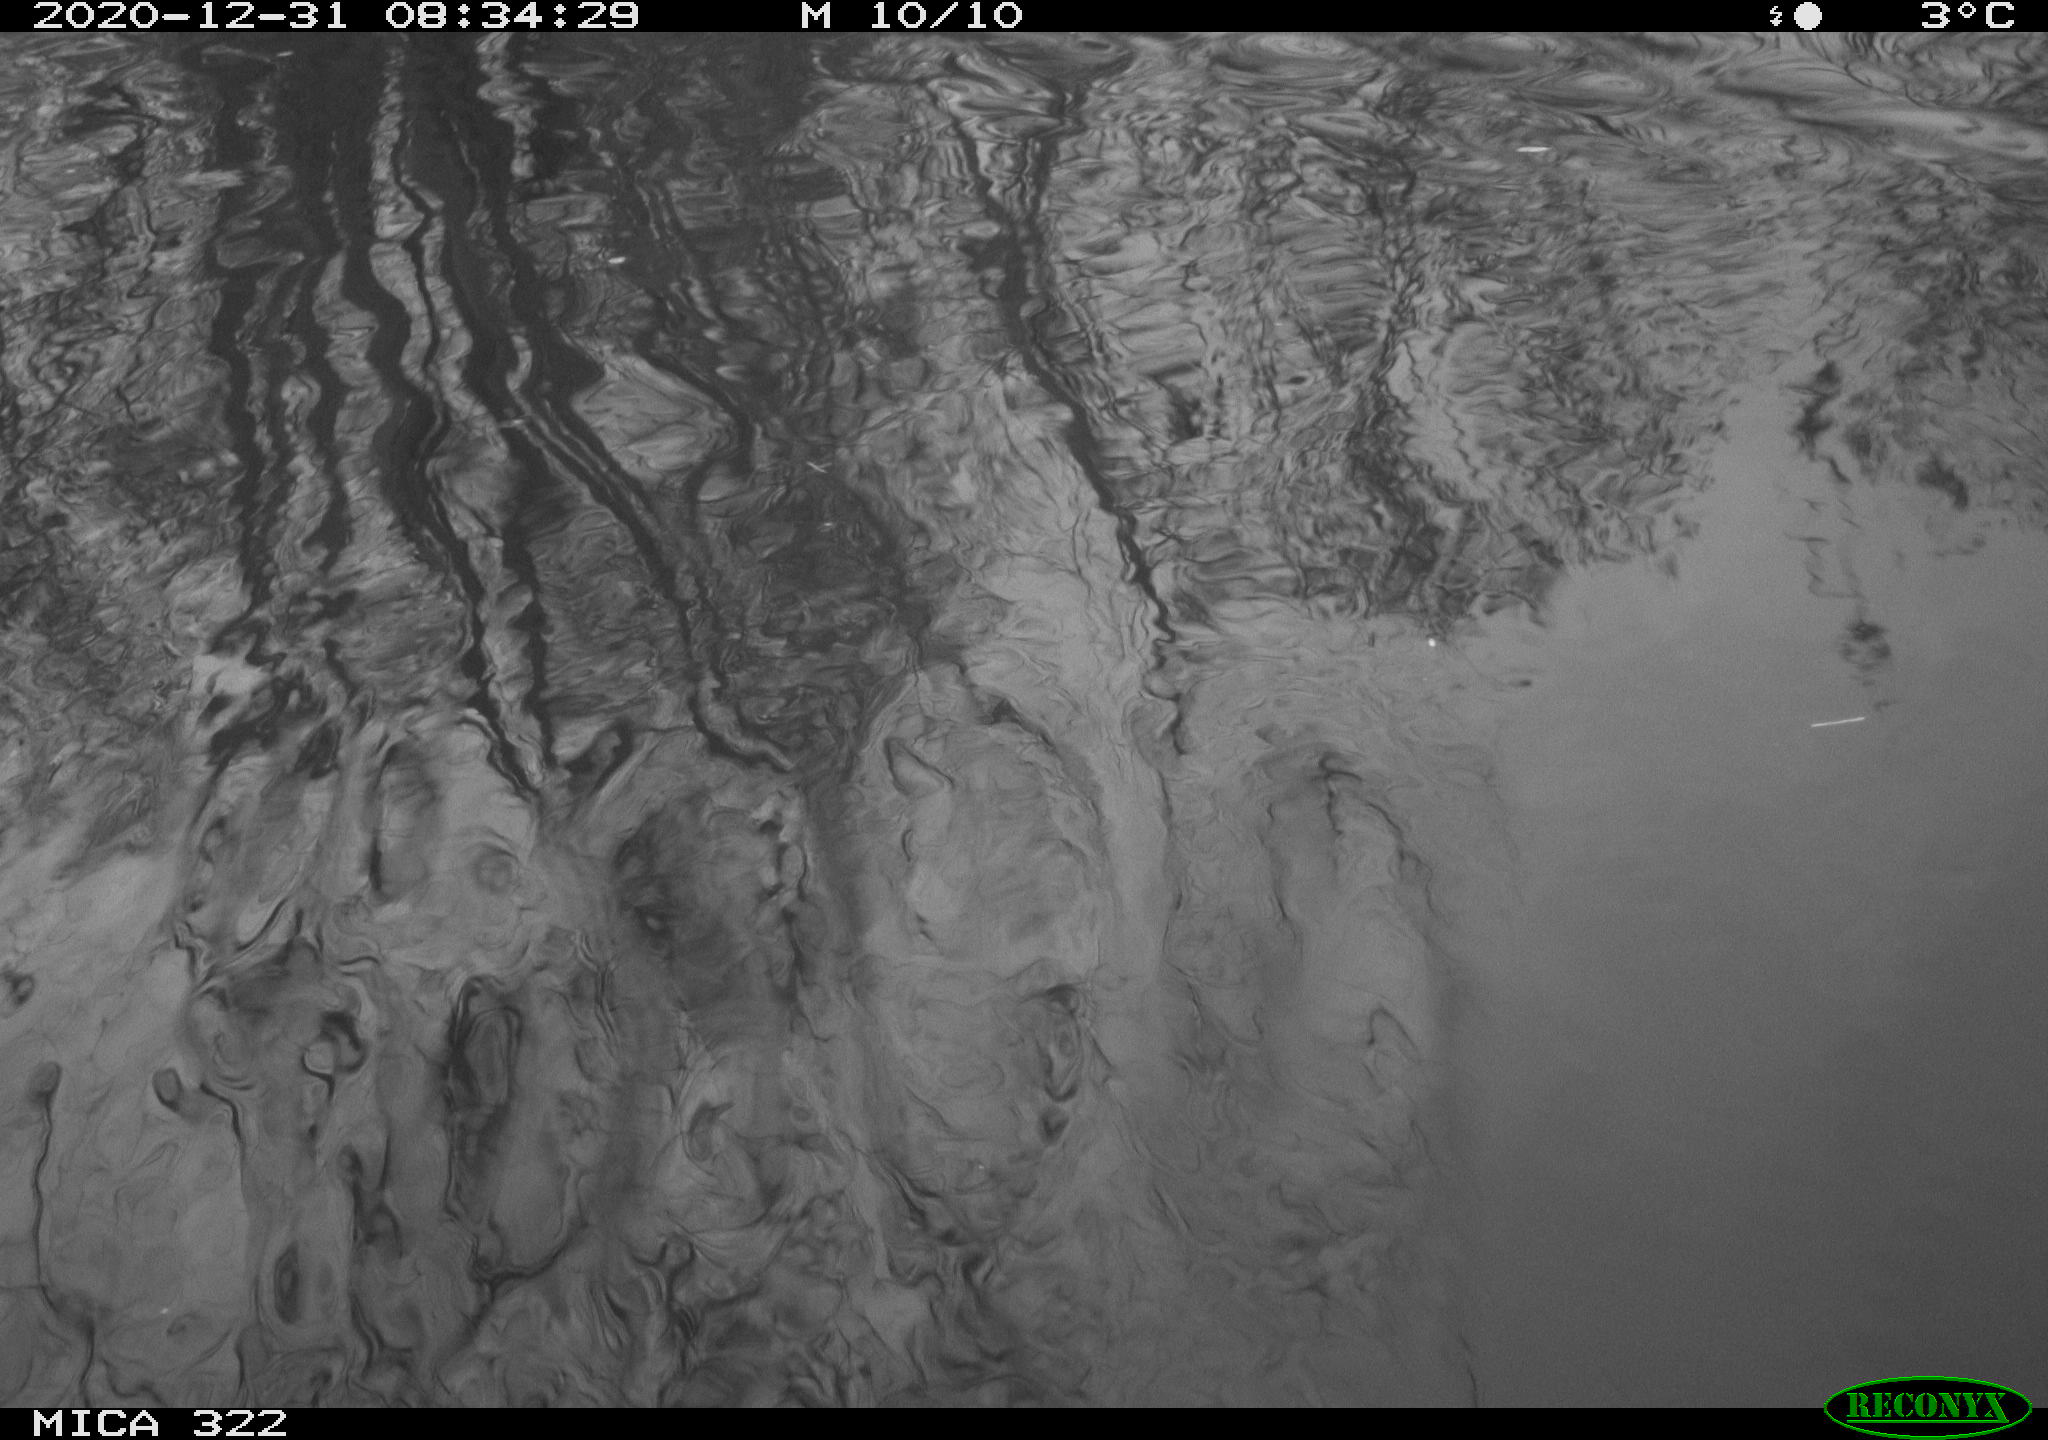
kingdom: Animalia
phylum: Chordata
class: Aves
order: Gruiformes
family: Rallidae
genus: Fulica
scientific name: Fulica atra
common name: Eurasian coot
